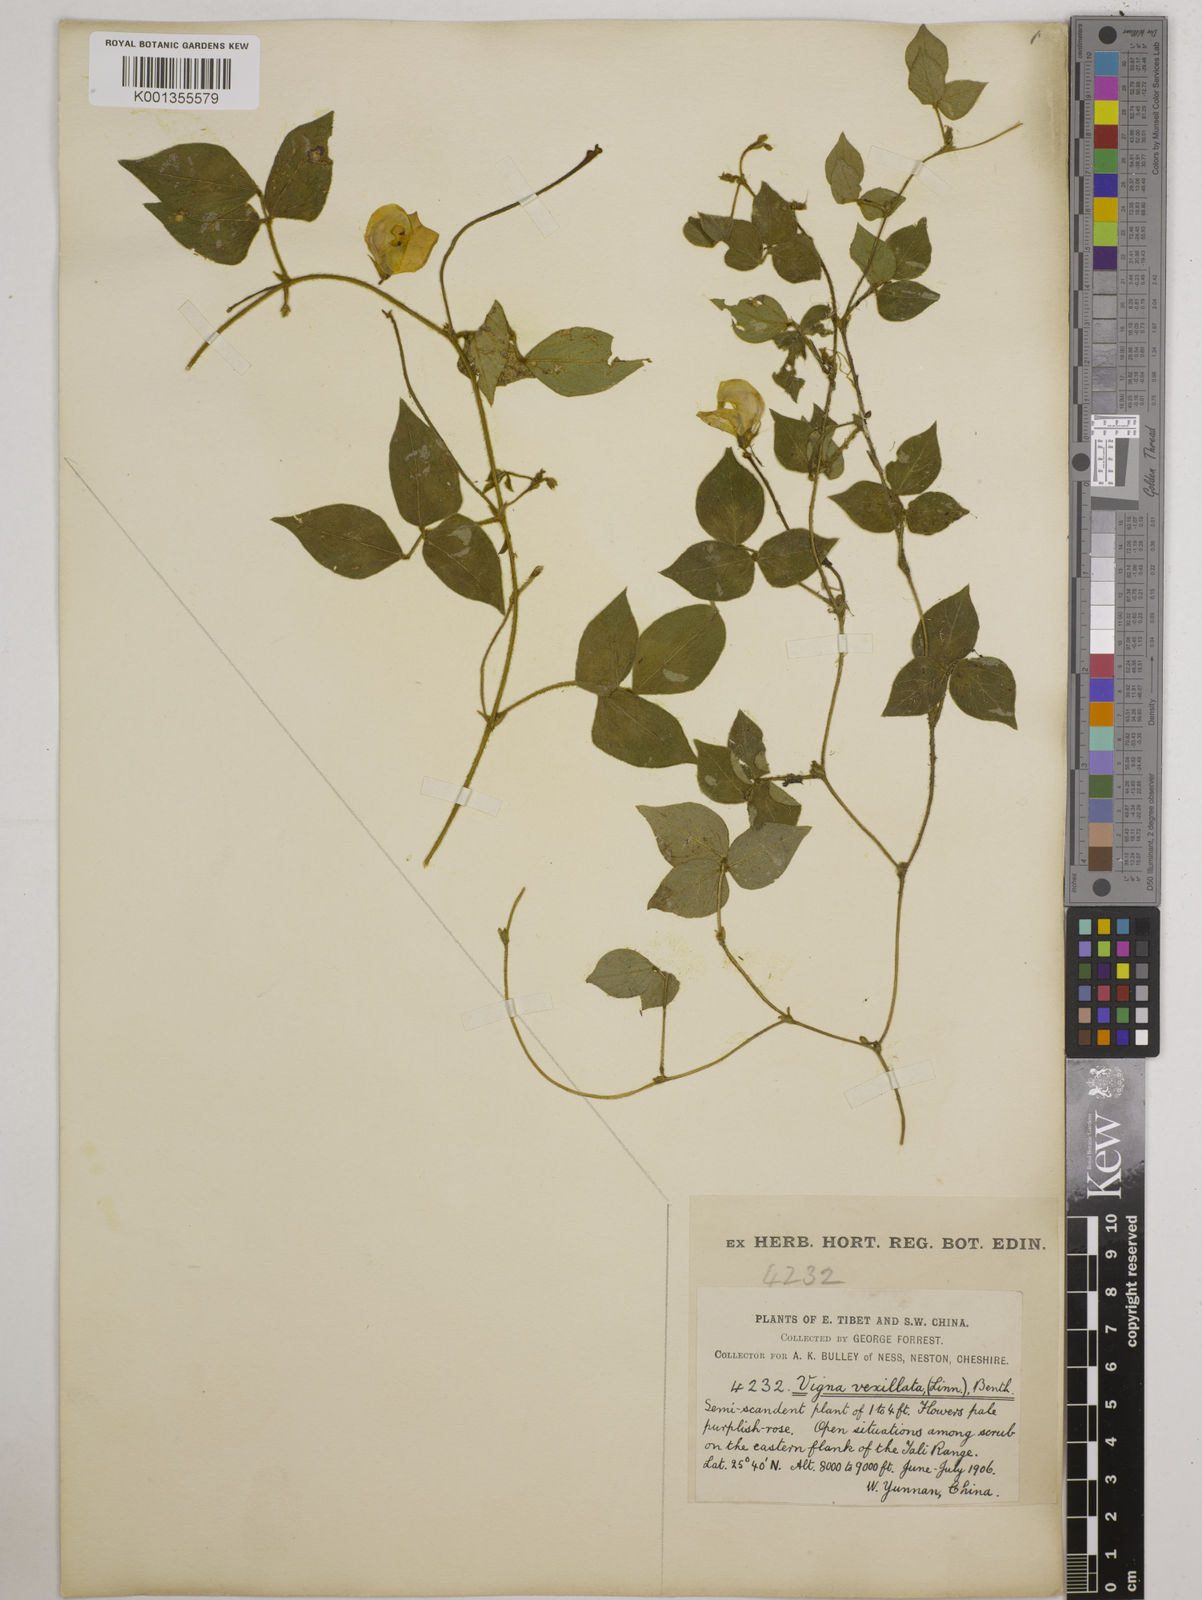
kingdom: Plantae
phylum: Tracheophyta
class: Magnoliopsida
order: Fabales
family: Fabaceae
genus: Vigna
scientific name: Vigna vexillata
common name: Zombi pea
